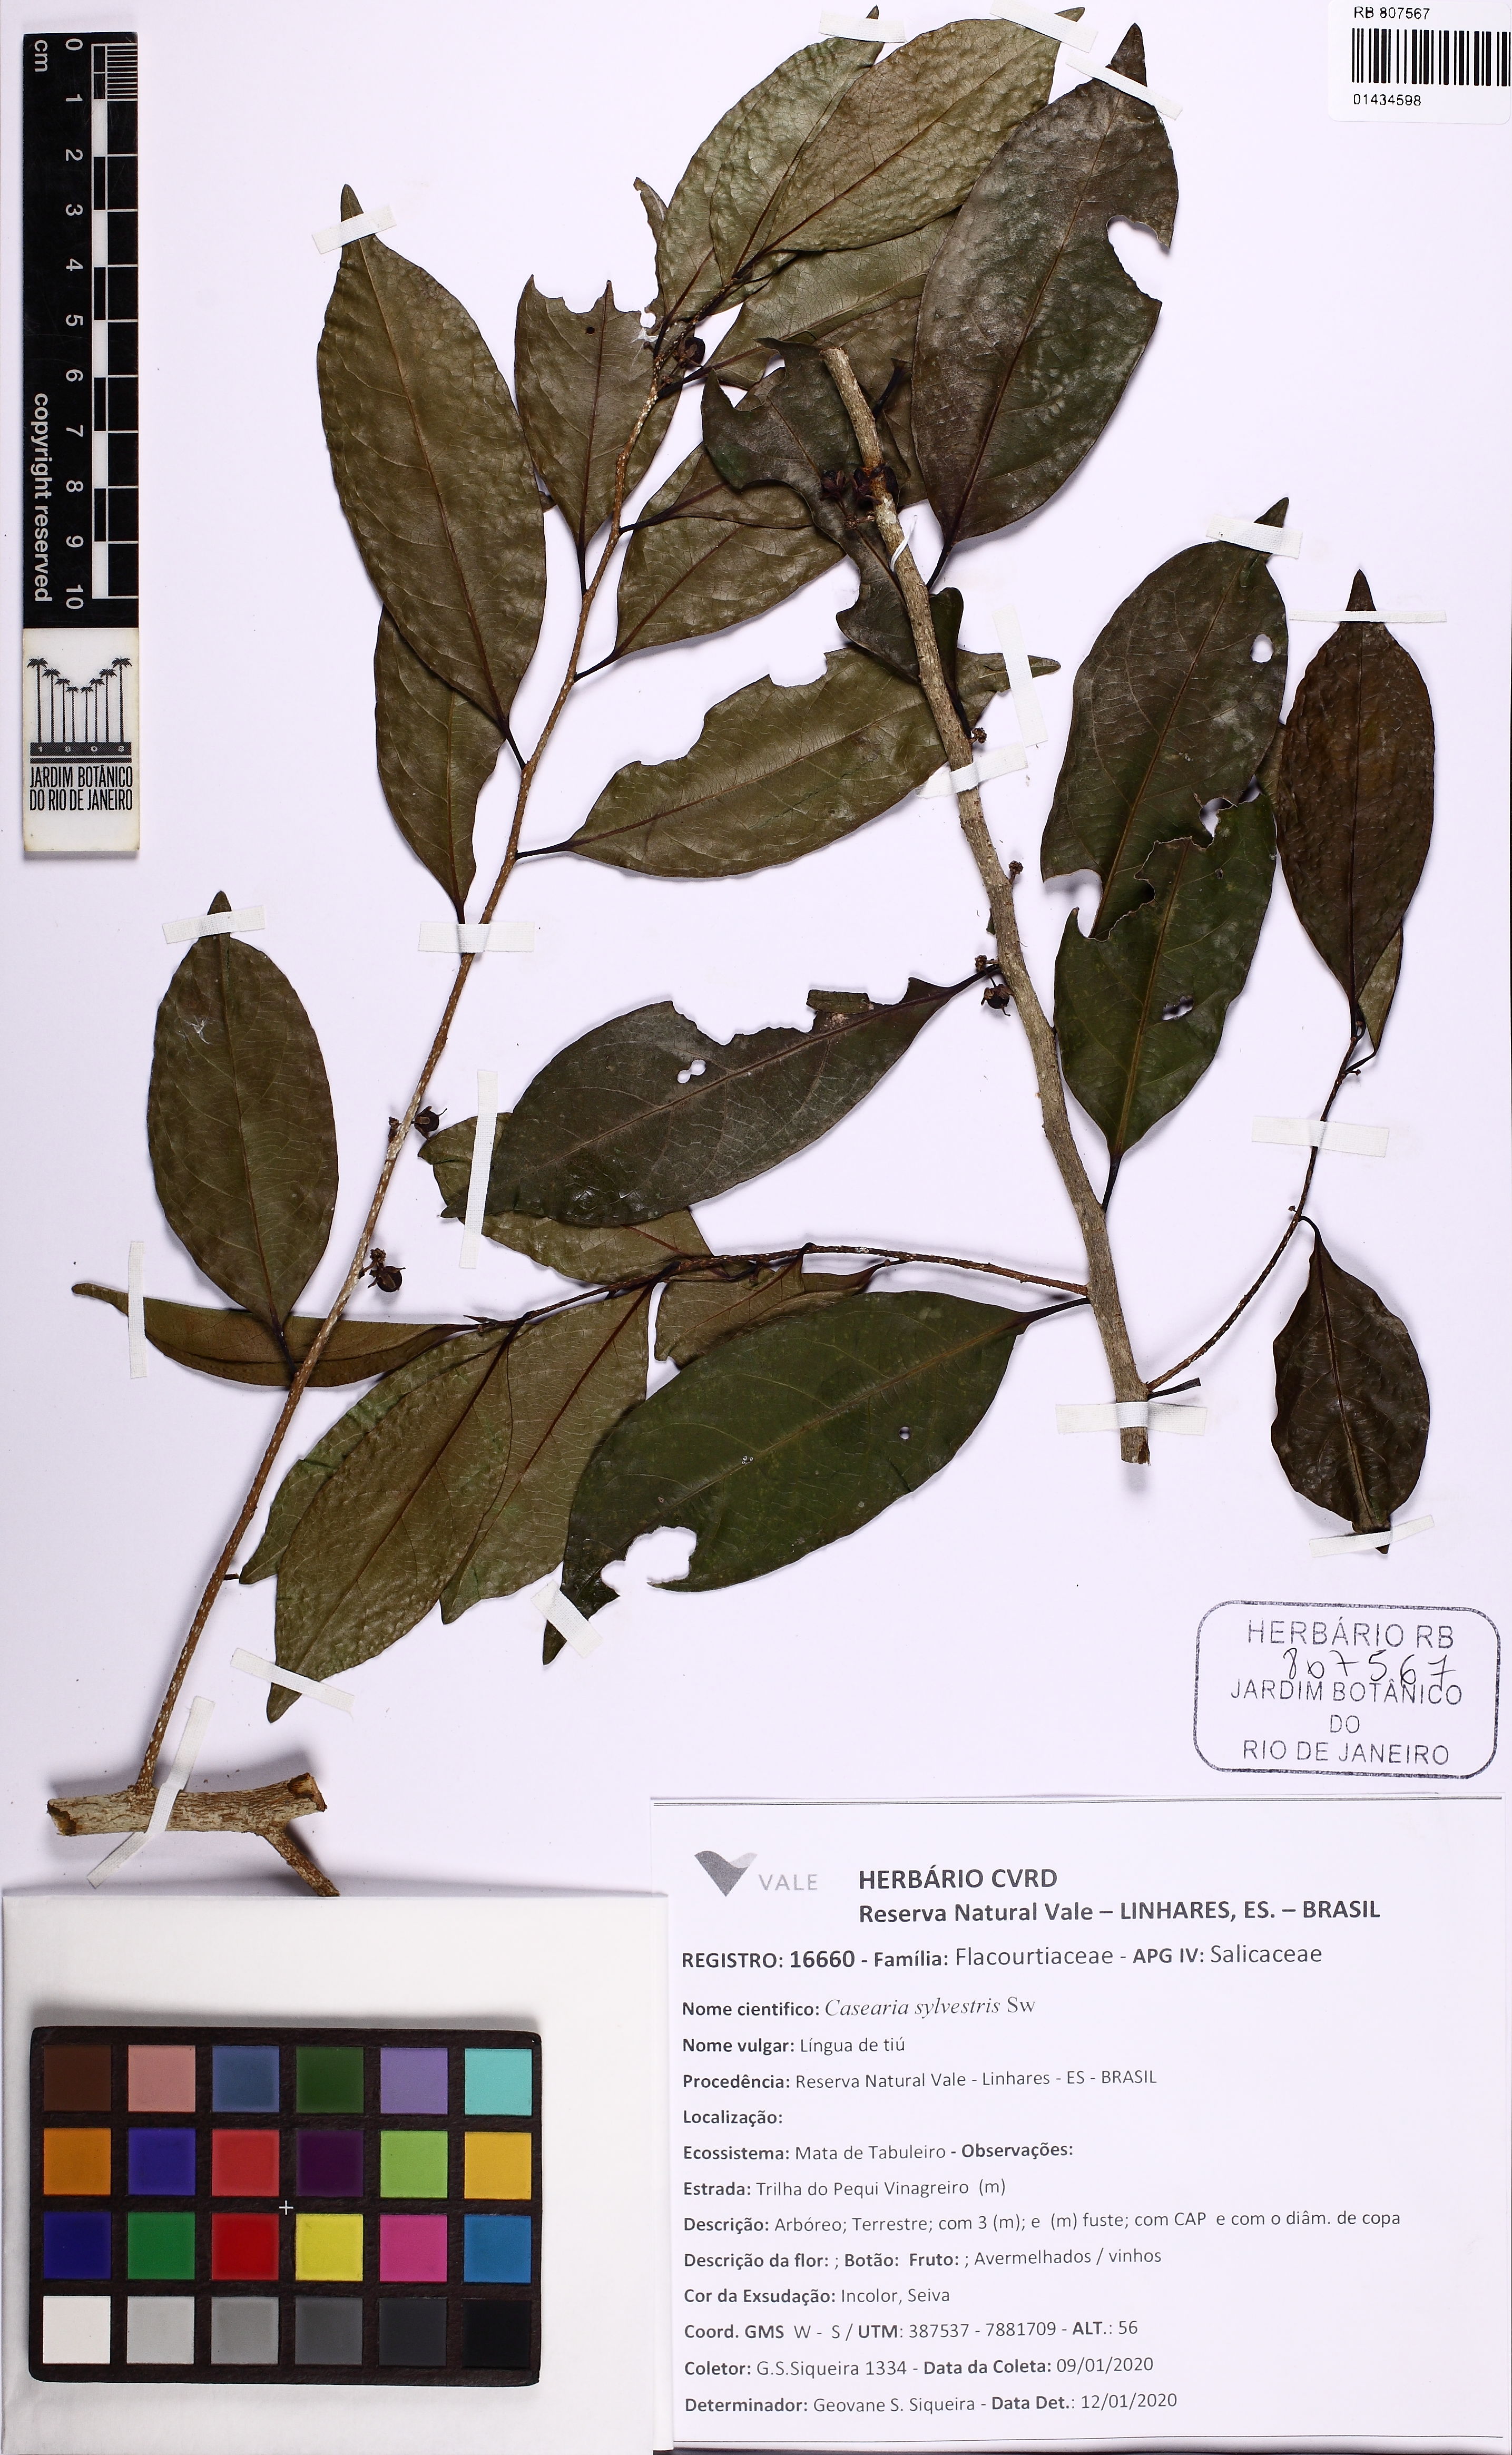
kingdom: Plantae
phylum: Tracheophyta
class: Magnoliopsida
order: Malpighiales
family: Salicaceae
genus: Casearia
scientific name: Casearia sylvestris
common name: Wild sage
